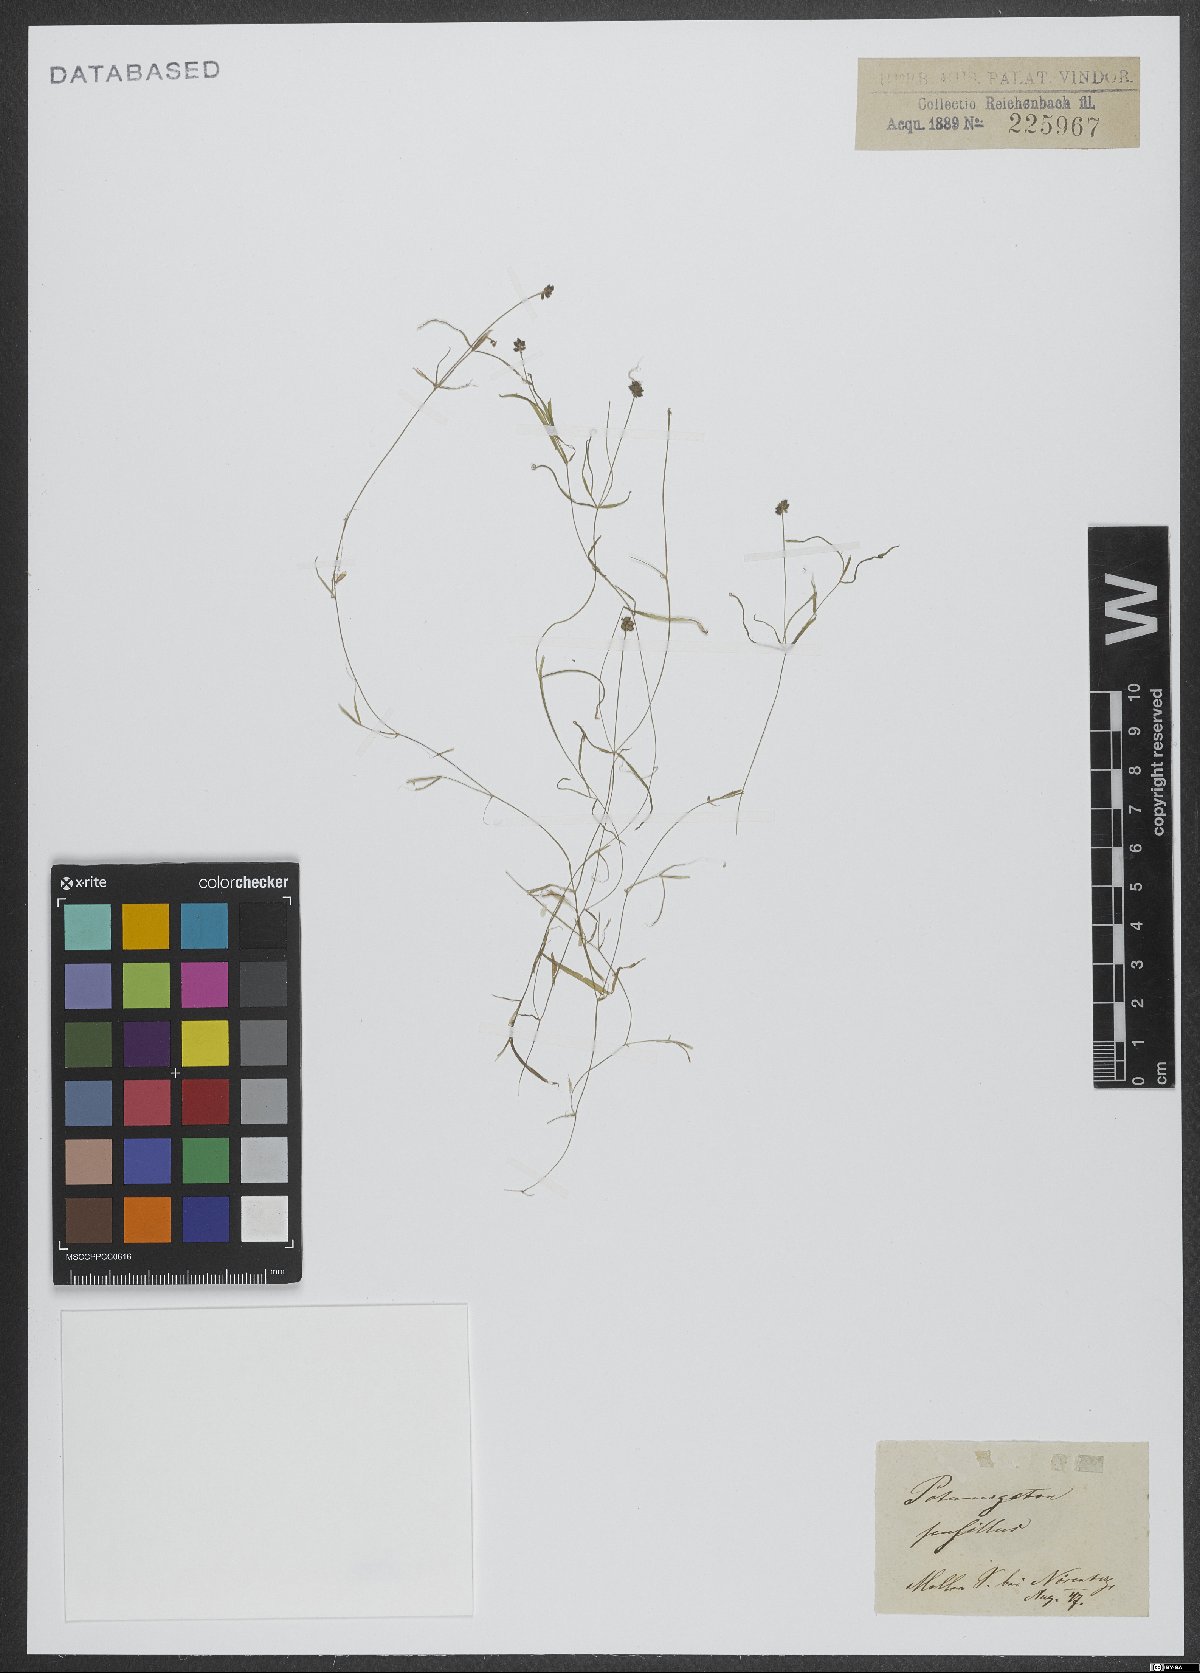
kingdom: Plantae
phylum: Tracheophyta
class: Liliopsida
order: Alismatales
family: Potamogetonaceae
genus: Potamogeton
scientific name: Potamogeton pusillus
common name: Lesser pondweed
